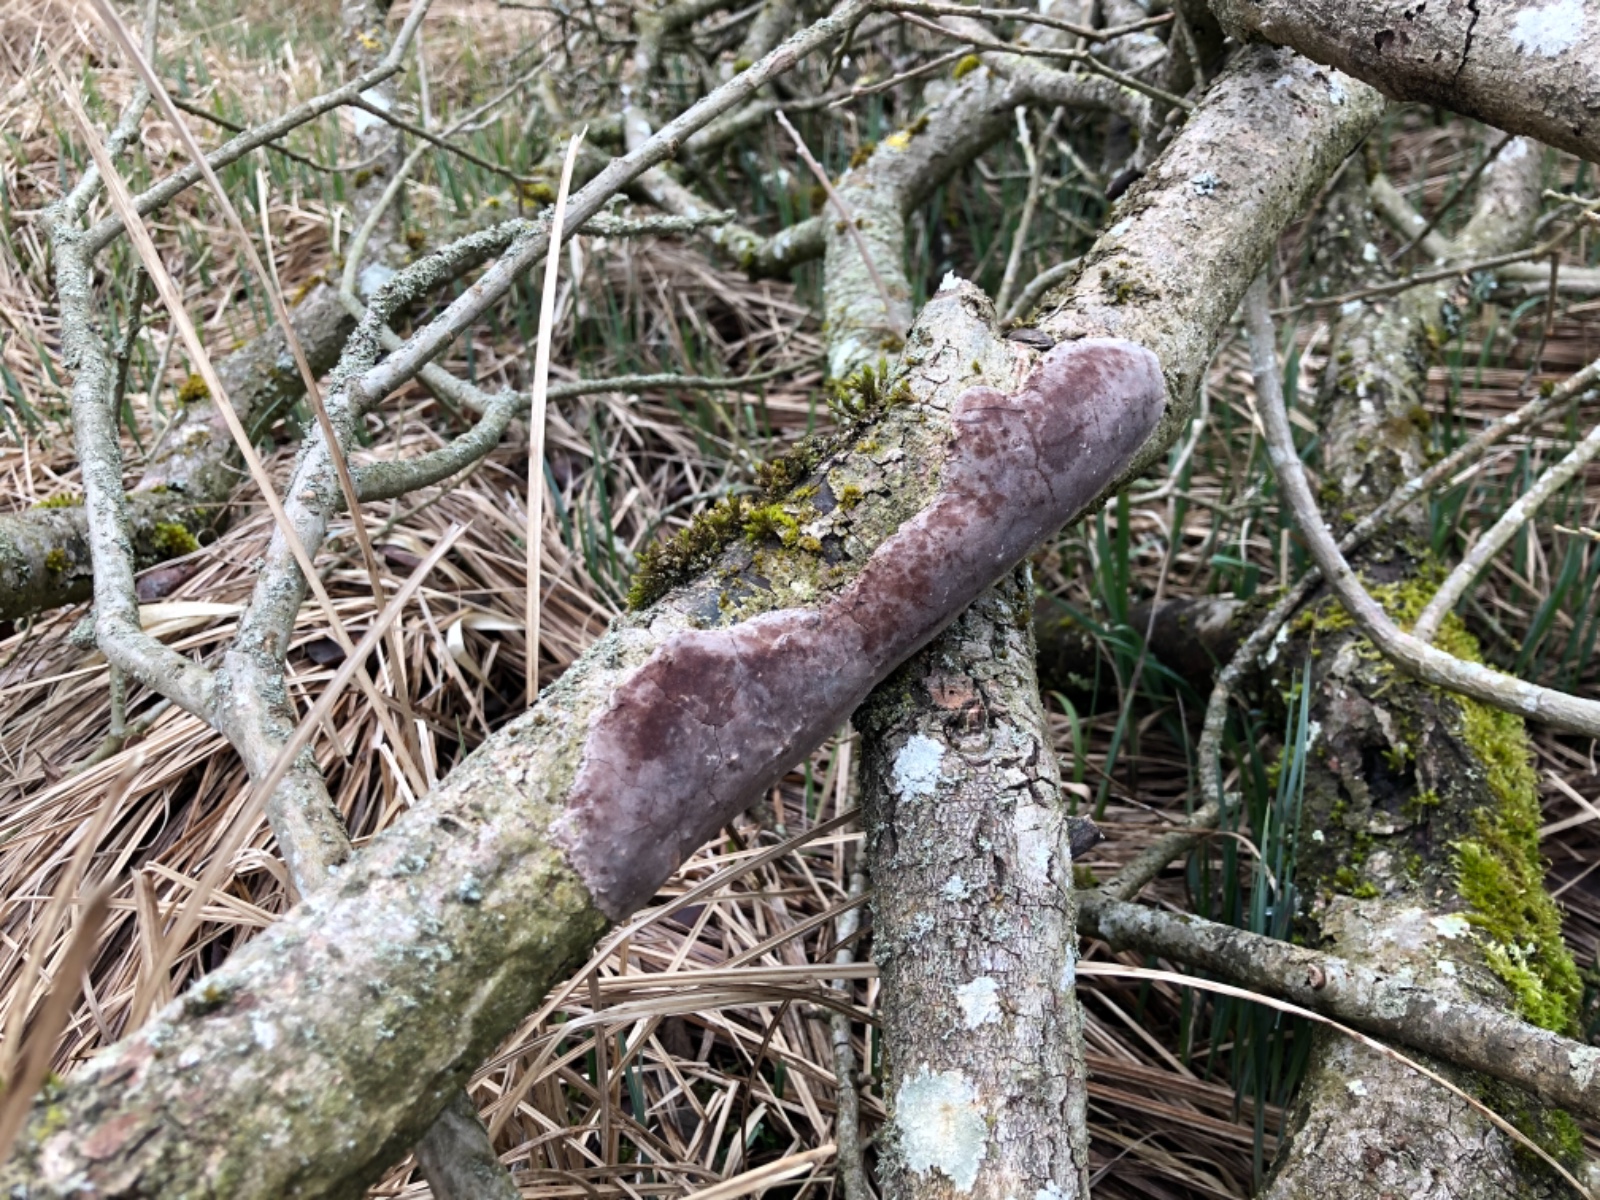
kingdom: Fungi
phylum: Basidiomycota
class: Agaricomycetes
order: Hymenochaetales
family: Hymenochaetaceae
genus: Fomitiporia
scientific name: Fomitiporia punctata
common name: pude-ildporesvamp
